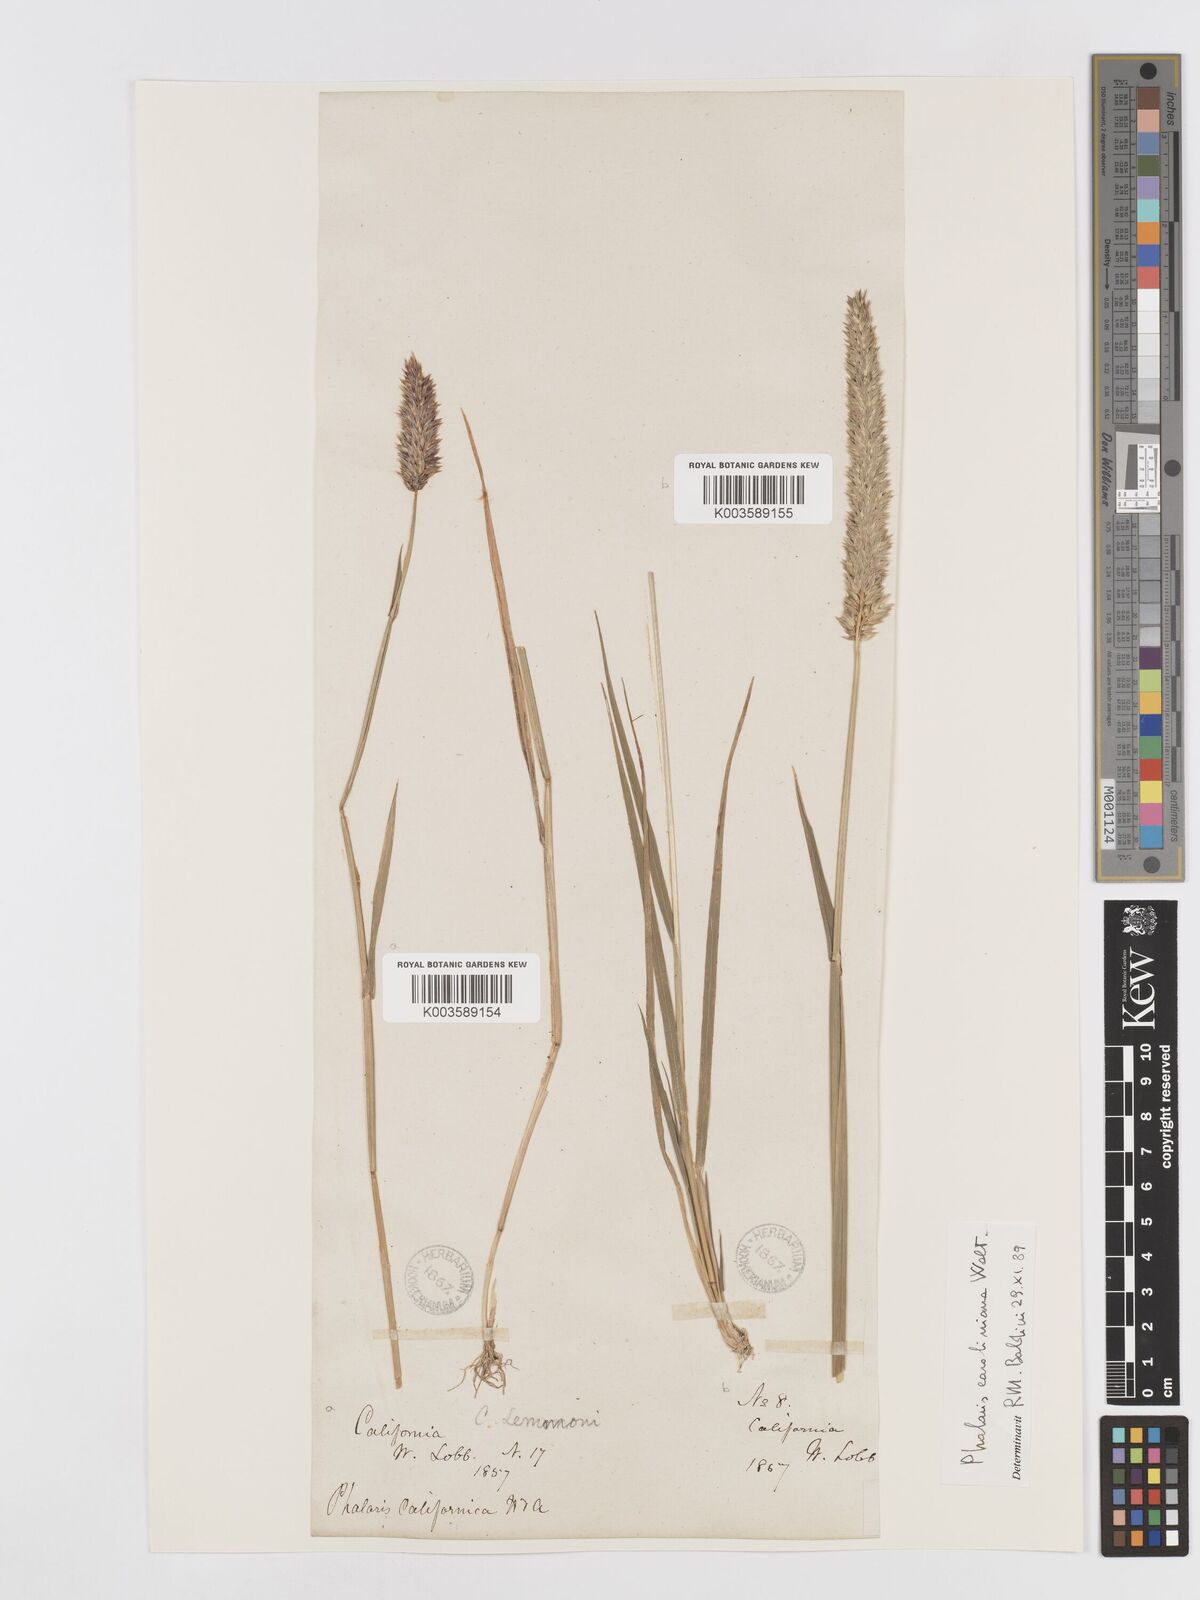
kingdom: Plantae
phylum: Tracheophyta
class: Liliopsida
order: Poales
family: Poaceae
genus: Phalaris
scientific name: Phalaris caroliniana
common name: May grass
